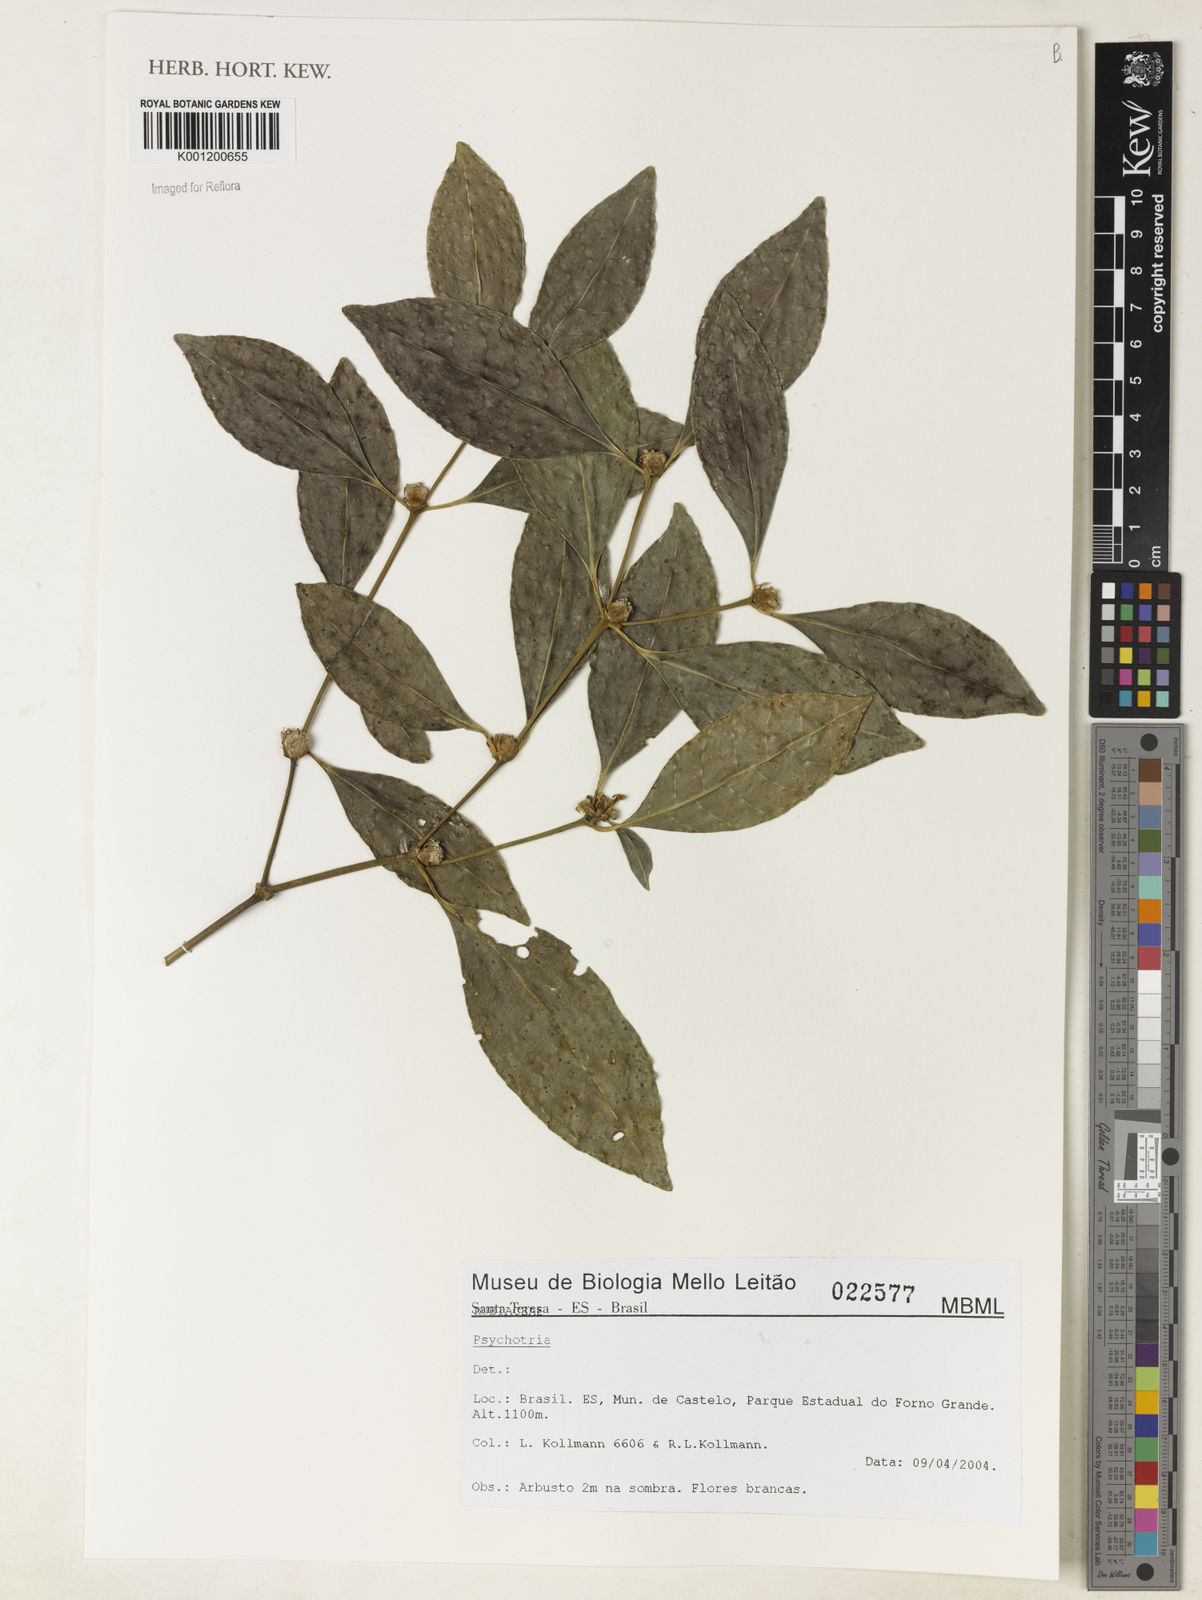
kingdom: Plantae
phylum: Tracheophyta
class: Magnoliopsida
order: Gentianales
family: Rubiaceae
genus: Psychotria
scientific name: Psychotria
